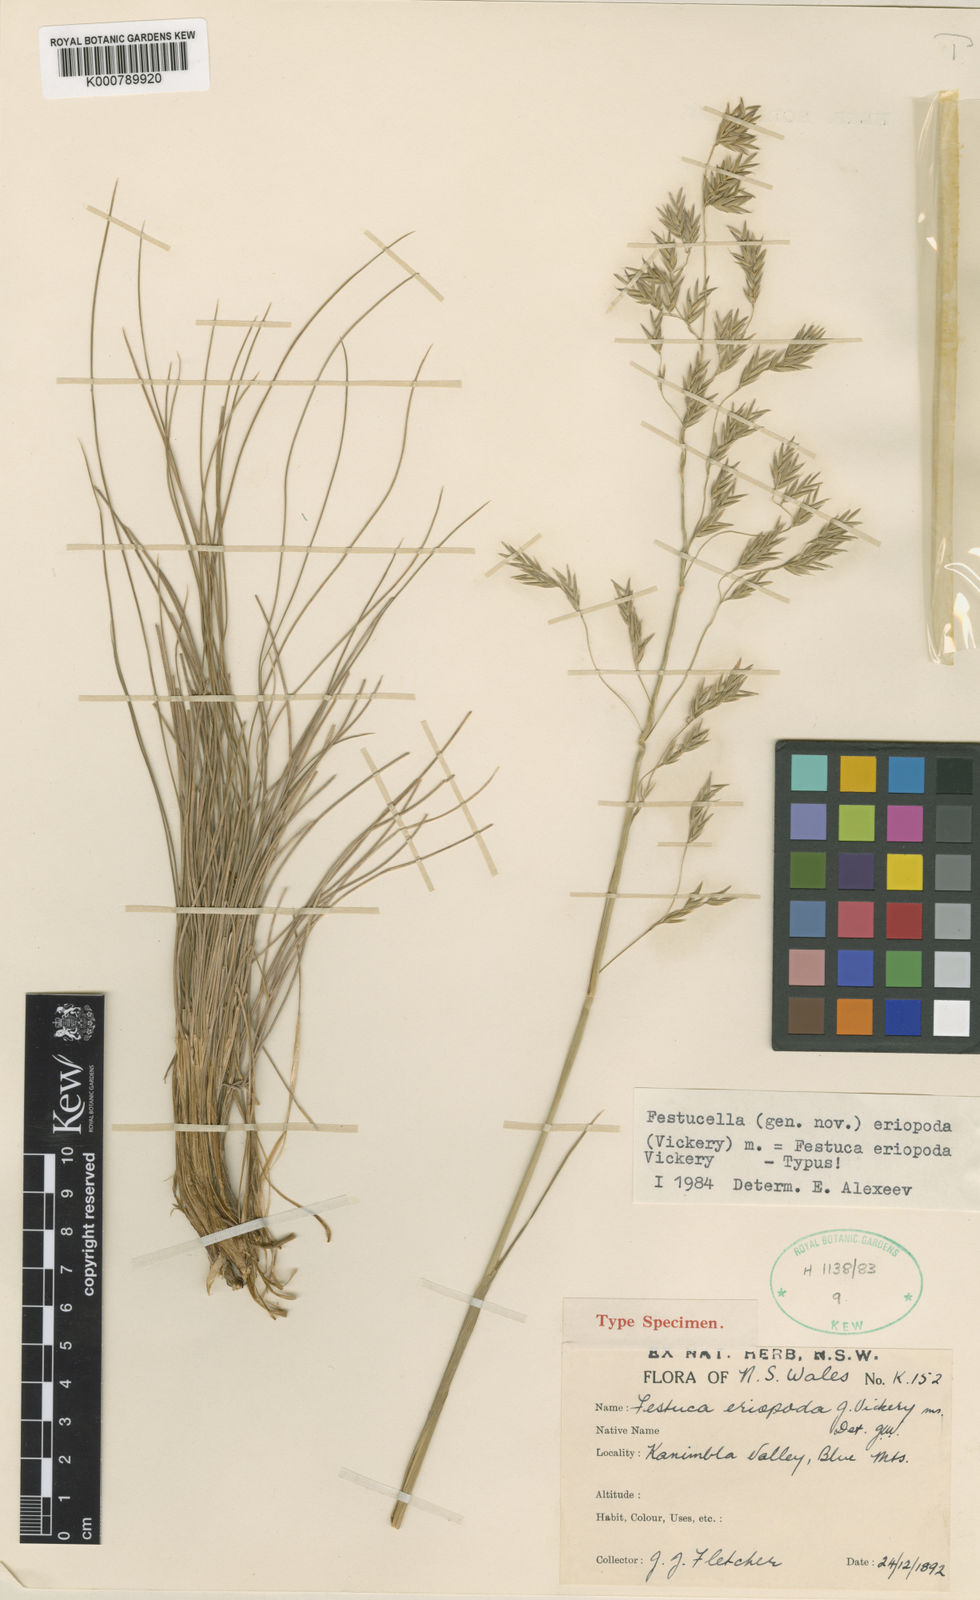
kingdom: Plantae
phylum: Tracheophyta
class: Liliopsida
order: Poales
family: Poaceae
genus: Hookerochloa
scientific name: Hookerochloa eriopoda
